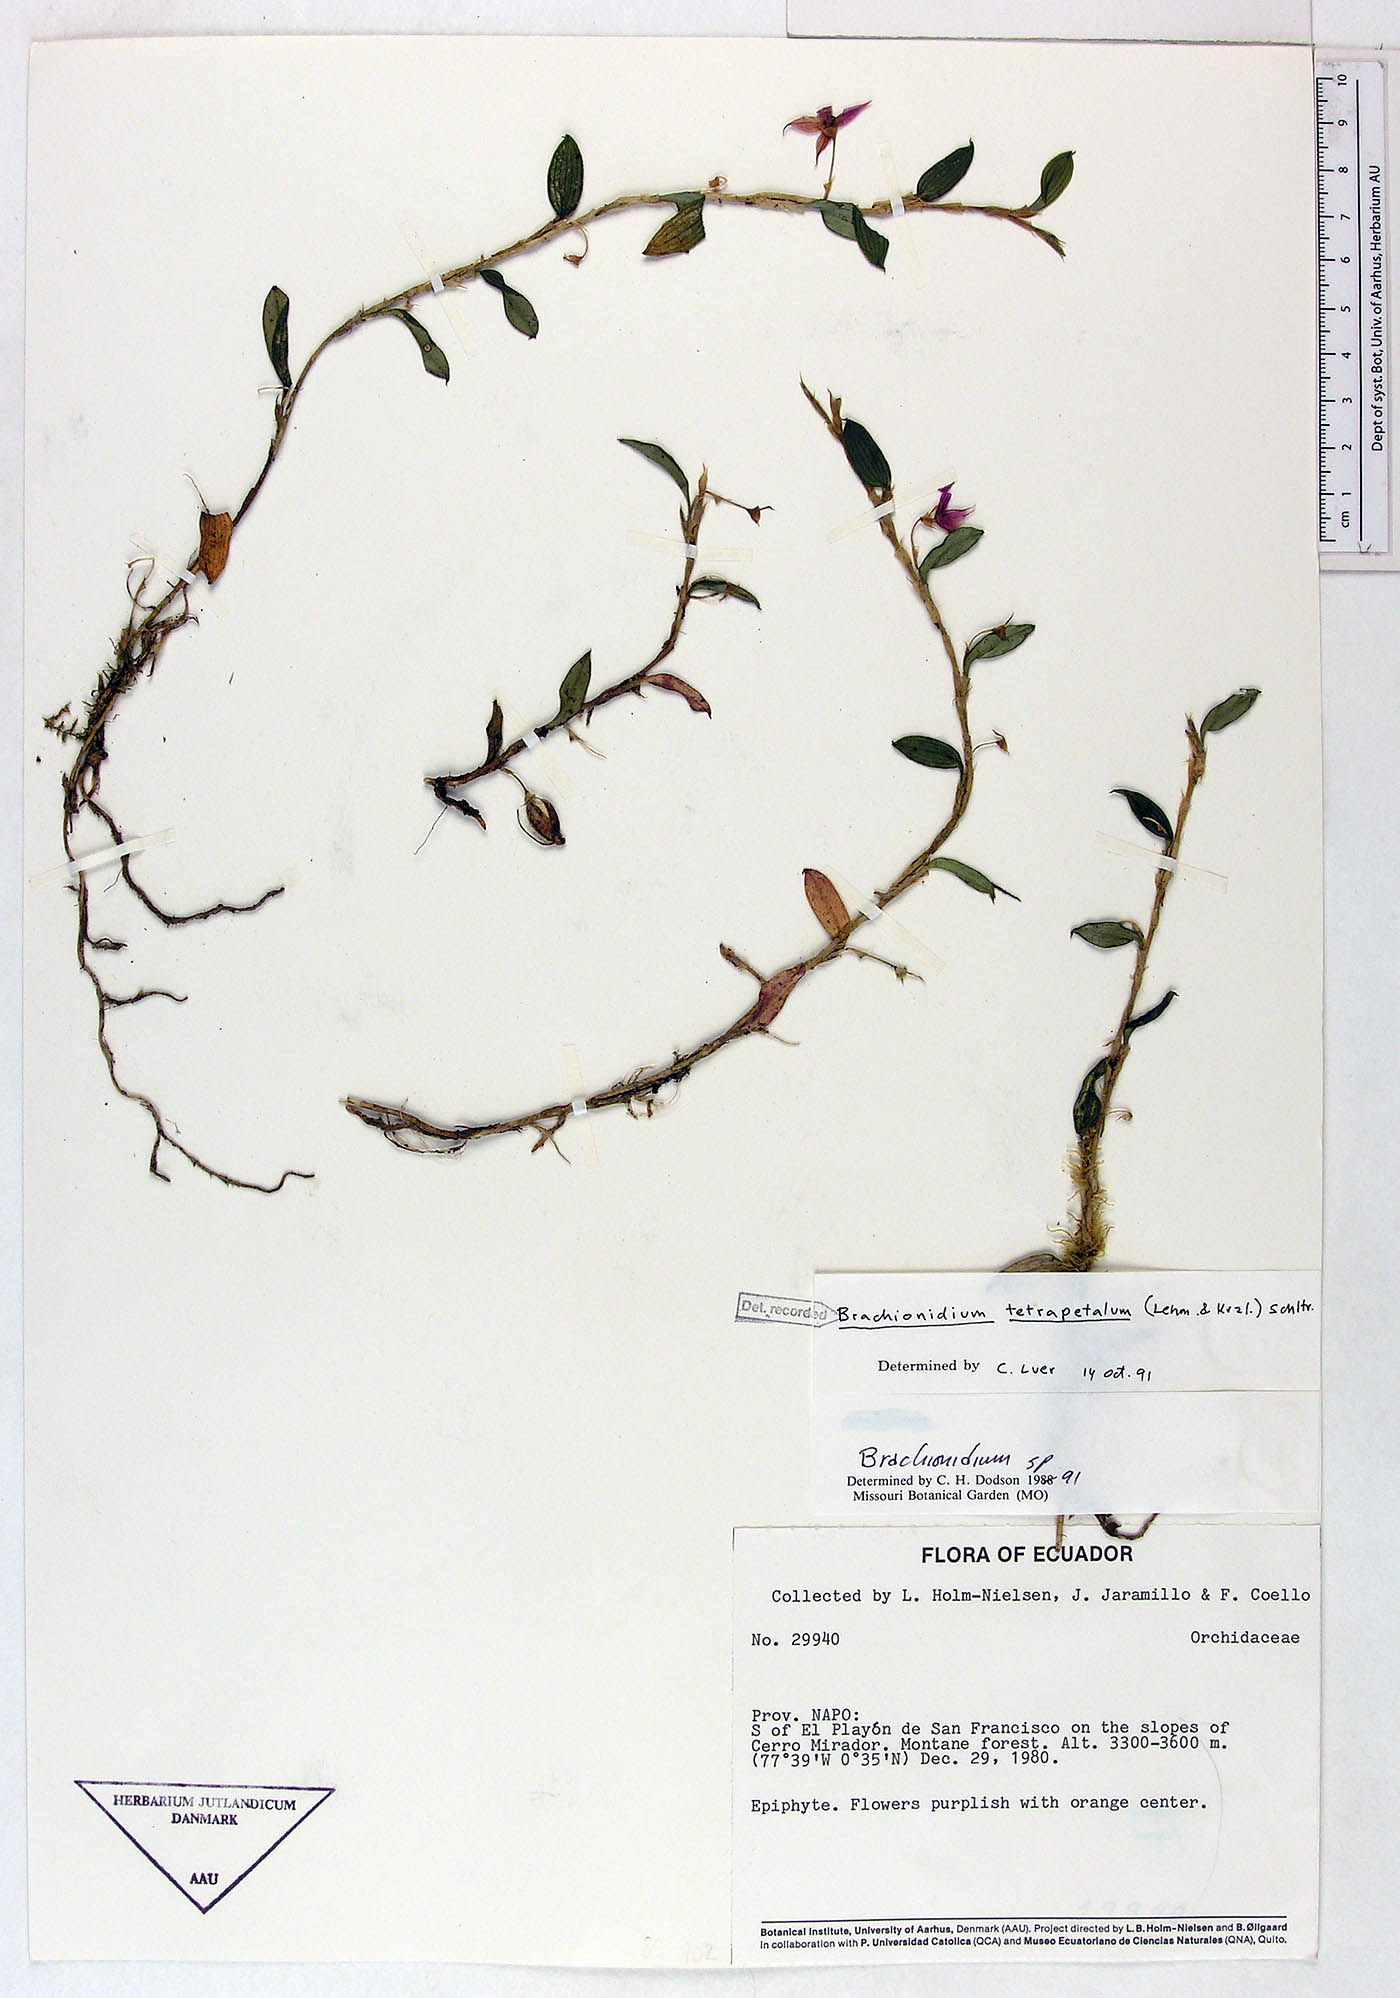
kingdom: Plantae
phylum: Tracheophyta
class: Liliopsida
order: Asparagales
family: Orchidaceae
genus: Brachionidium
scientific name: Brachionidium tetrapetalum
